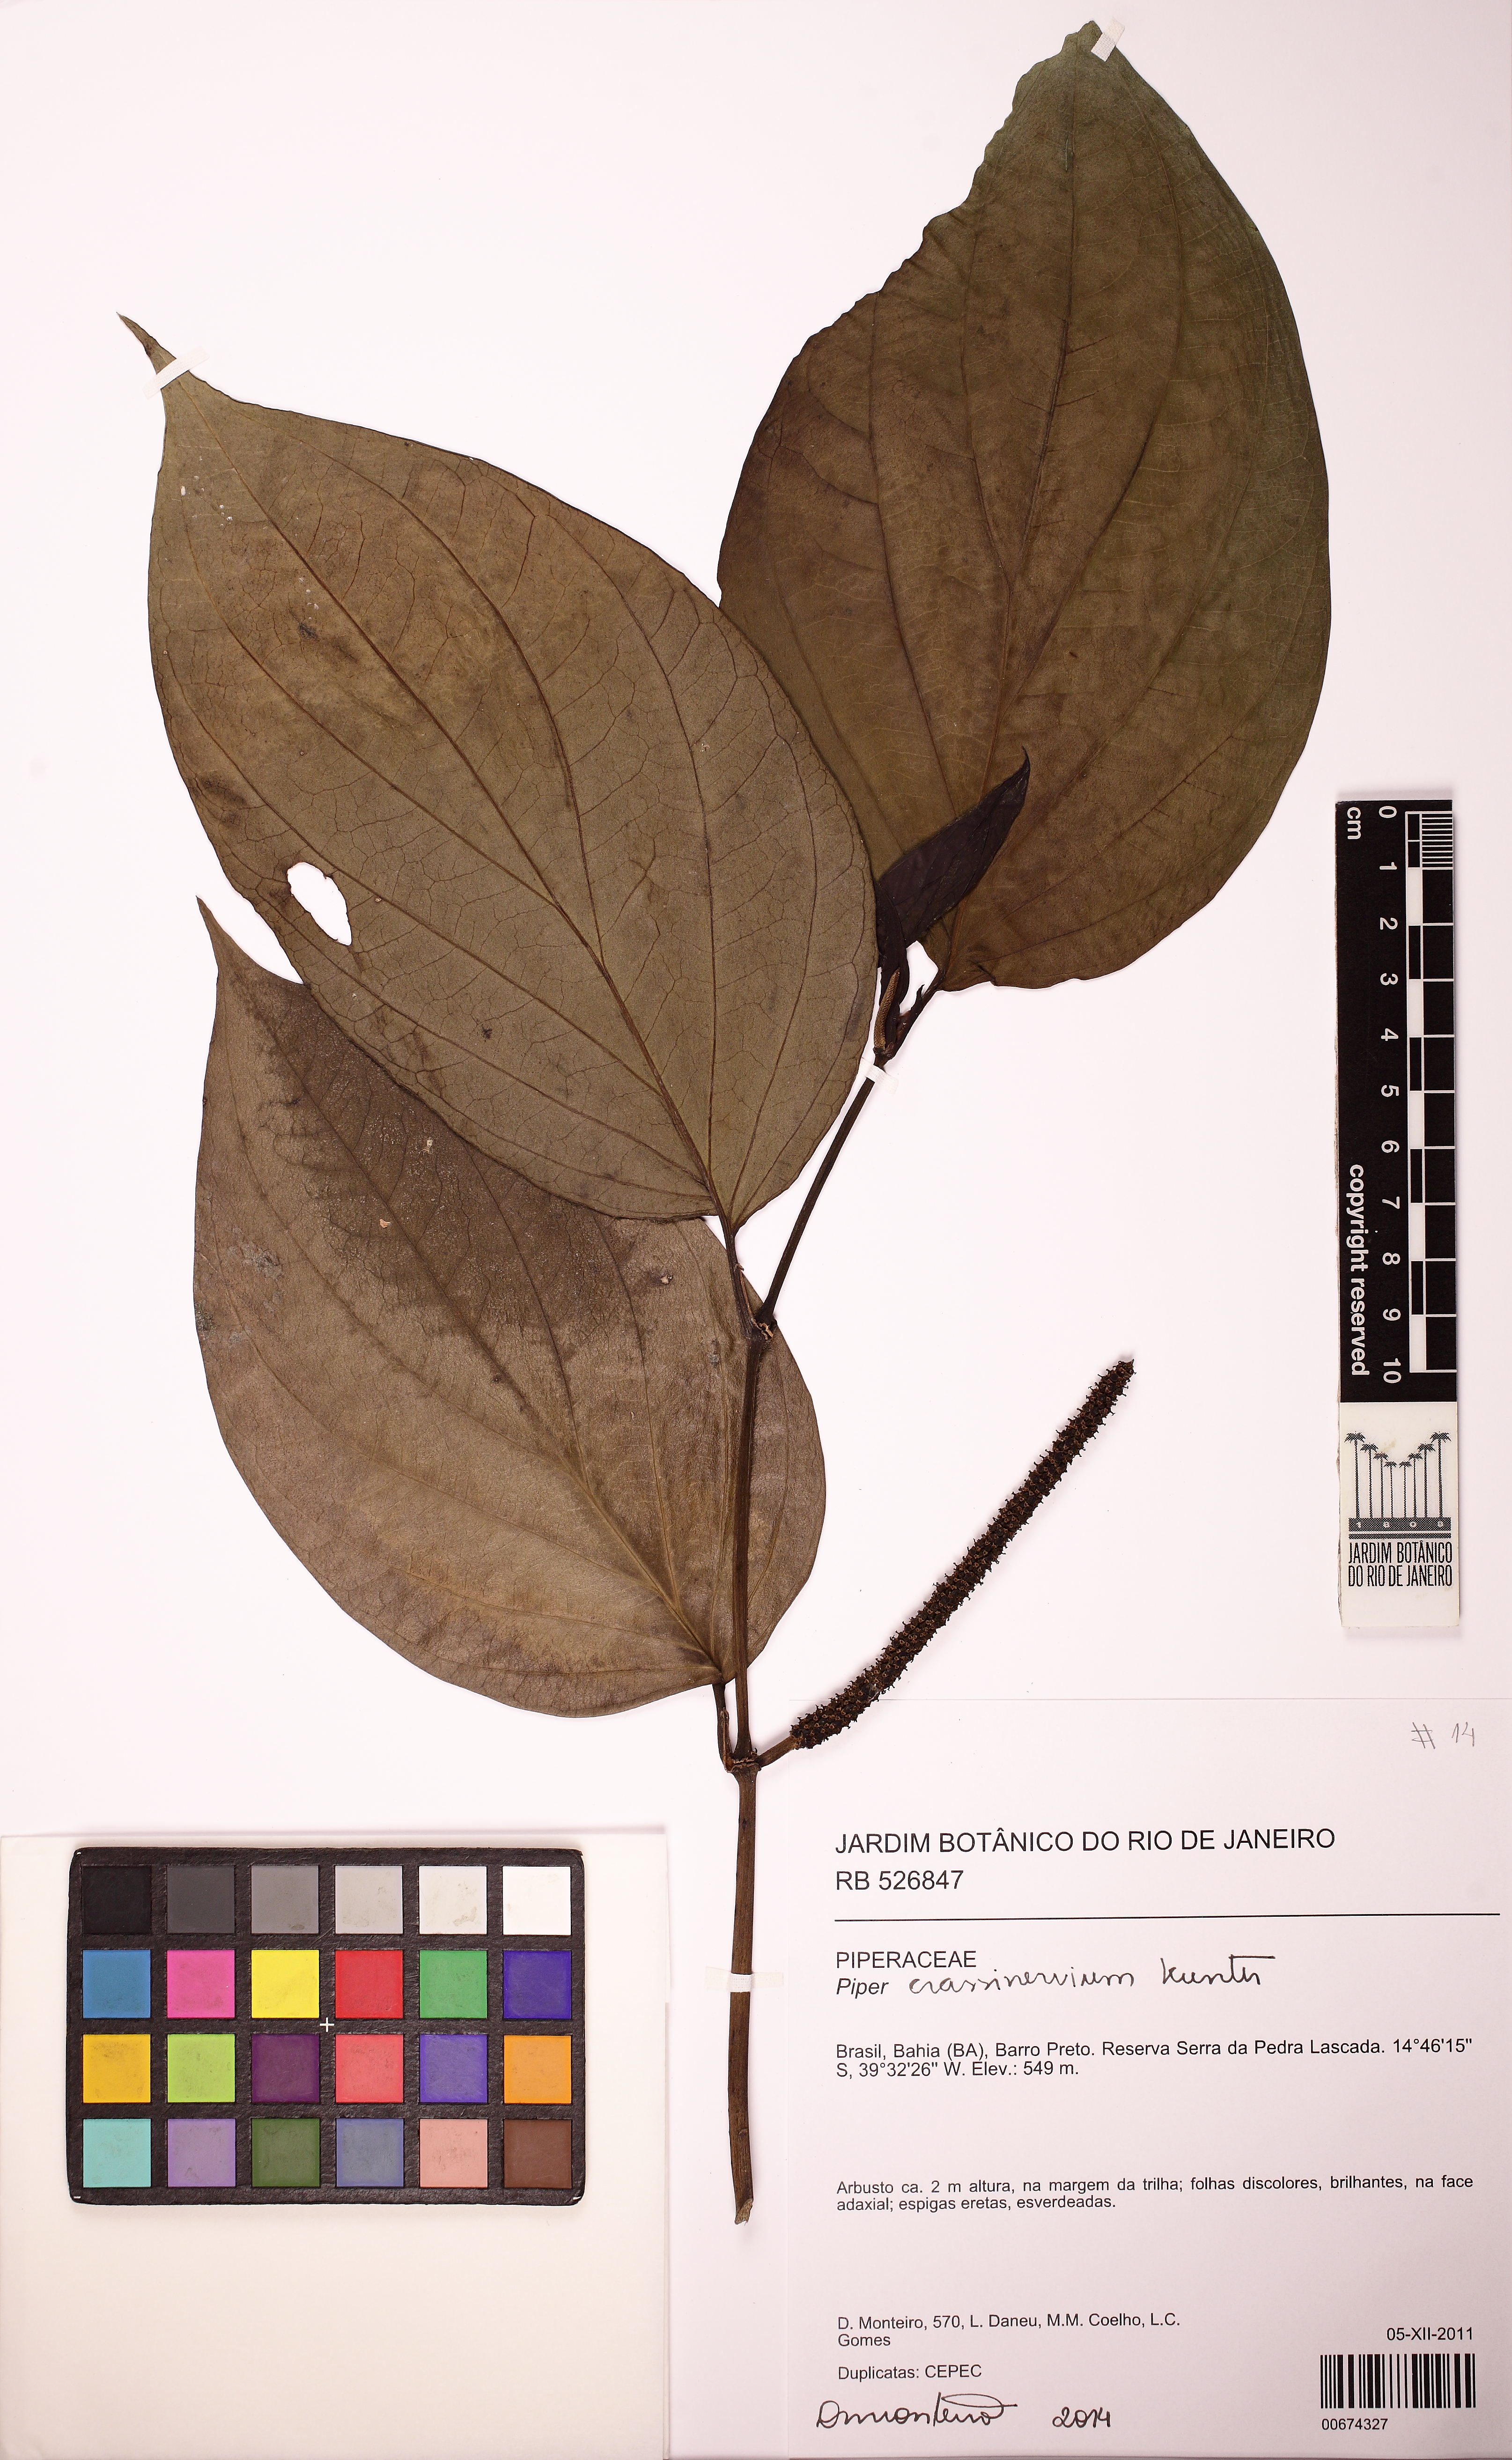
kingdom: Plantae
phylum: Tracheophyta
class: Magnoliopsida
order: Piperales
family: Piperaceae
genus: Piper
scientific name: Piper crassinervium
